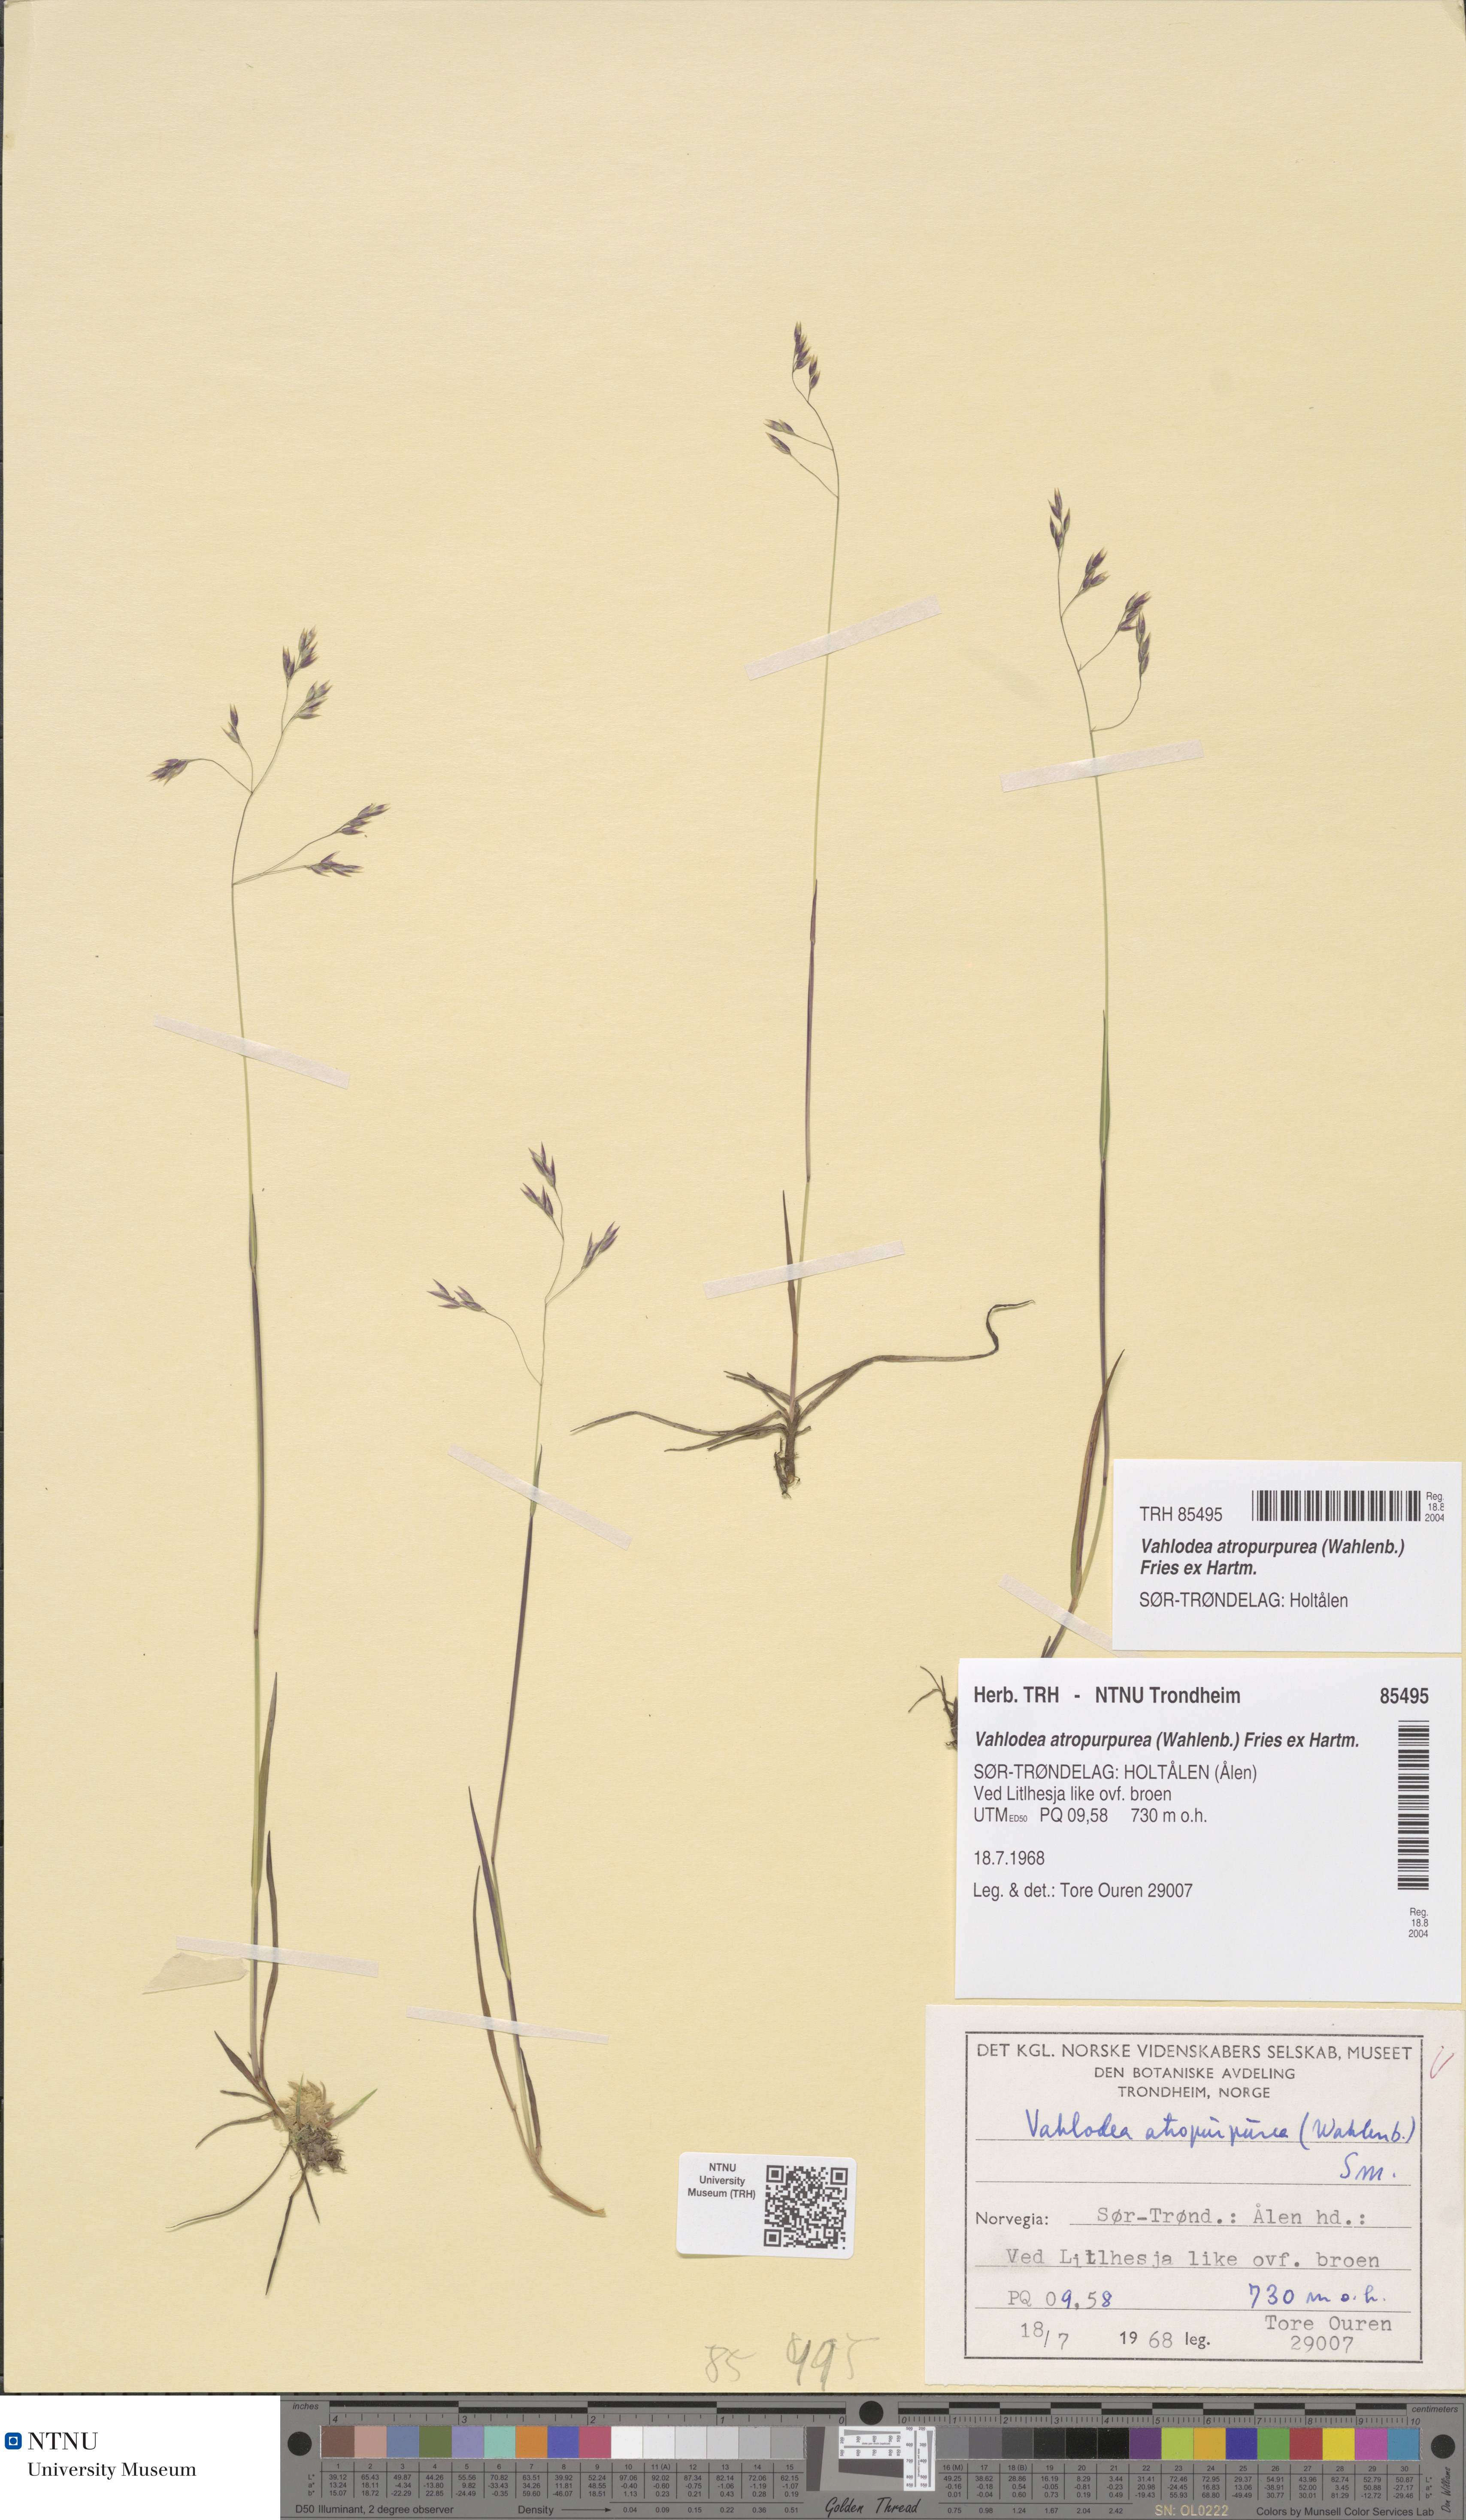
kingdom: Plantae
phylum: Tracheophyta
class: Liliopsida
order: Poales
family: Poaceae
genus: Vahlodea
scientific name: Vahlodea atropurpurea
